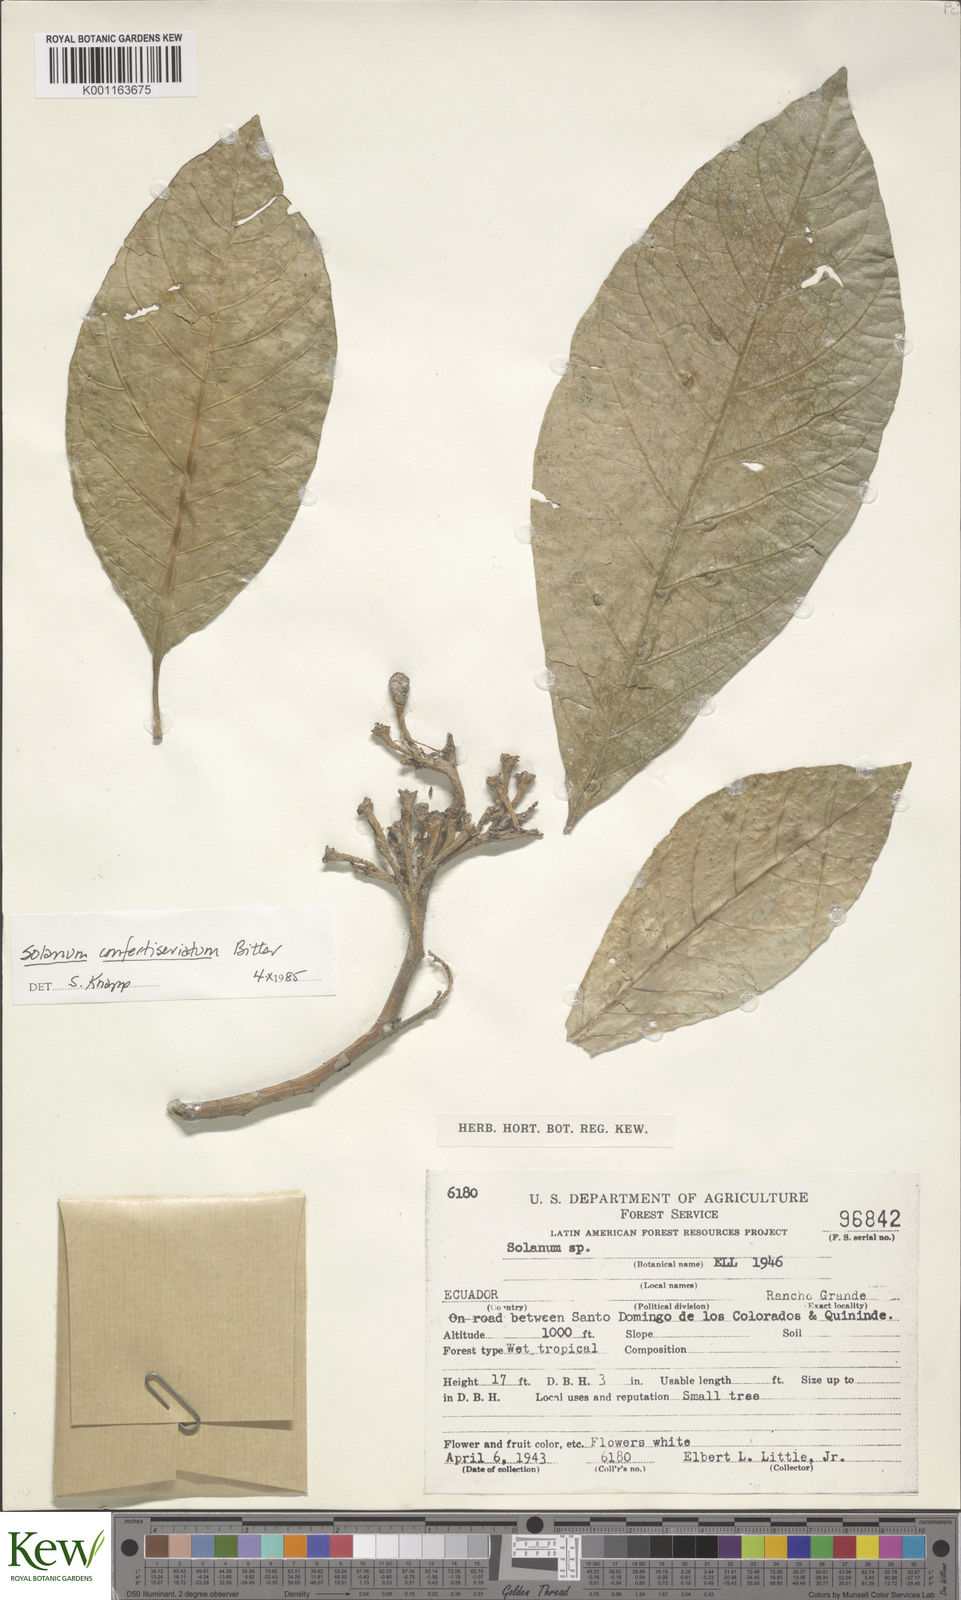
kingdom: Plantae
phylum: Tracheophyta
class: Magnoliopsida
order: Solanales
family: Solanaceae
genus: Solanum
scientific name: Solanum confertiseriatum
